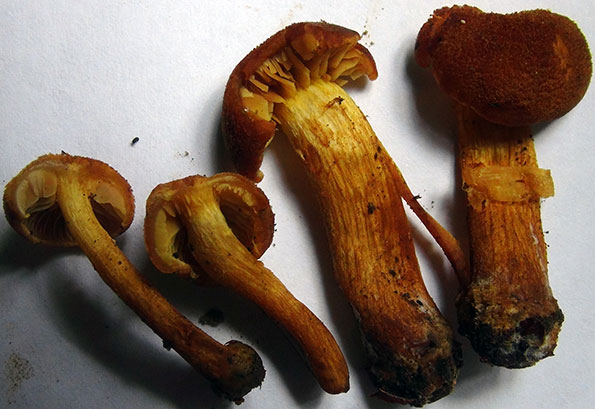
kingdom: Fungi
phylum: Basidiomycota
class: Agaricomycetes
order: Agaricales
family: Tubariaceae
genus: Flammulaster
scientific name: Flammulaster limulatus
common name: gylden grynskælhat
